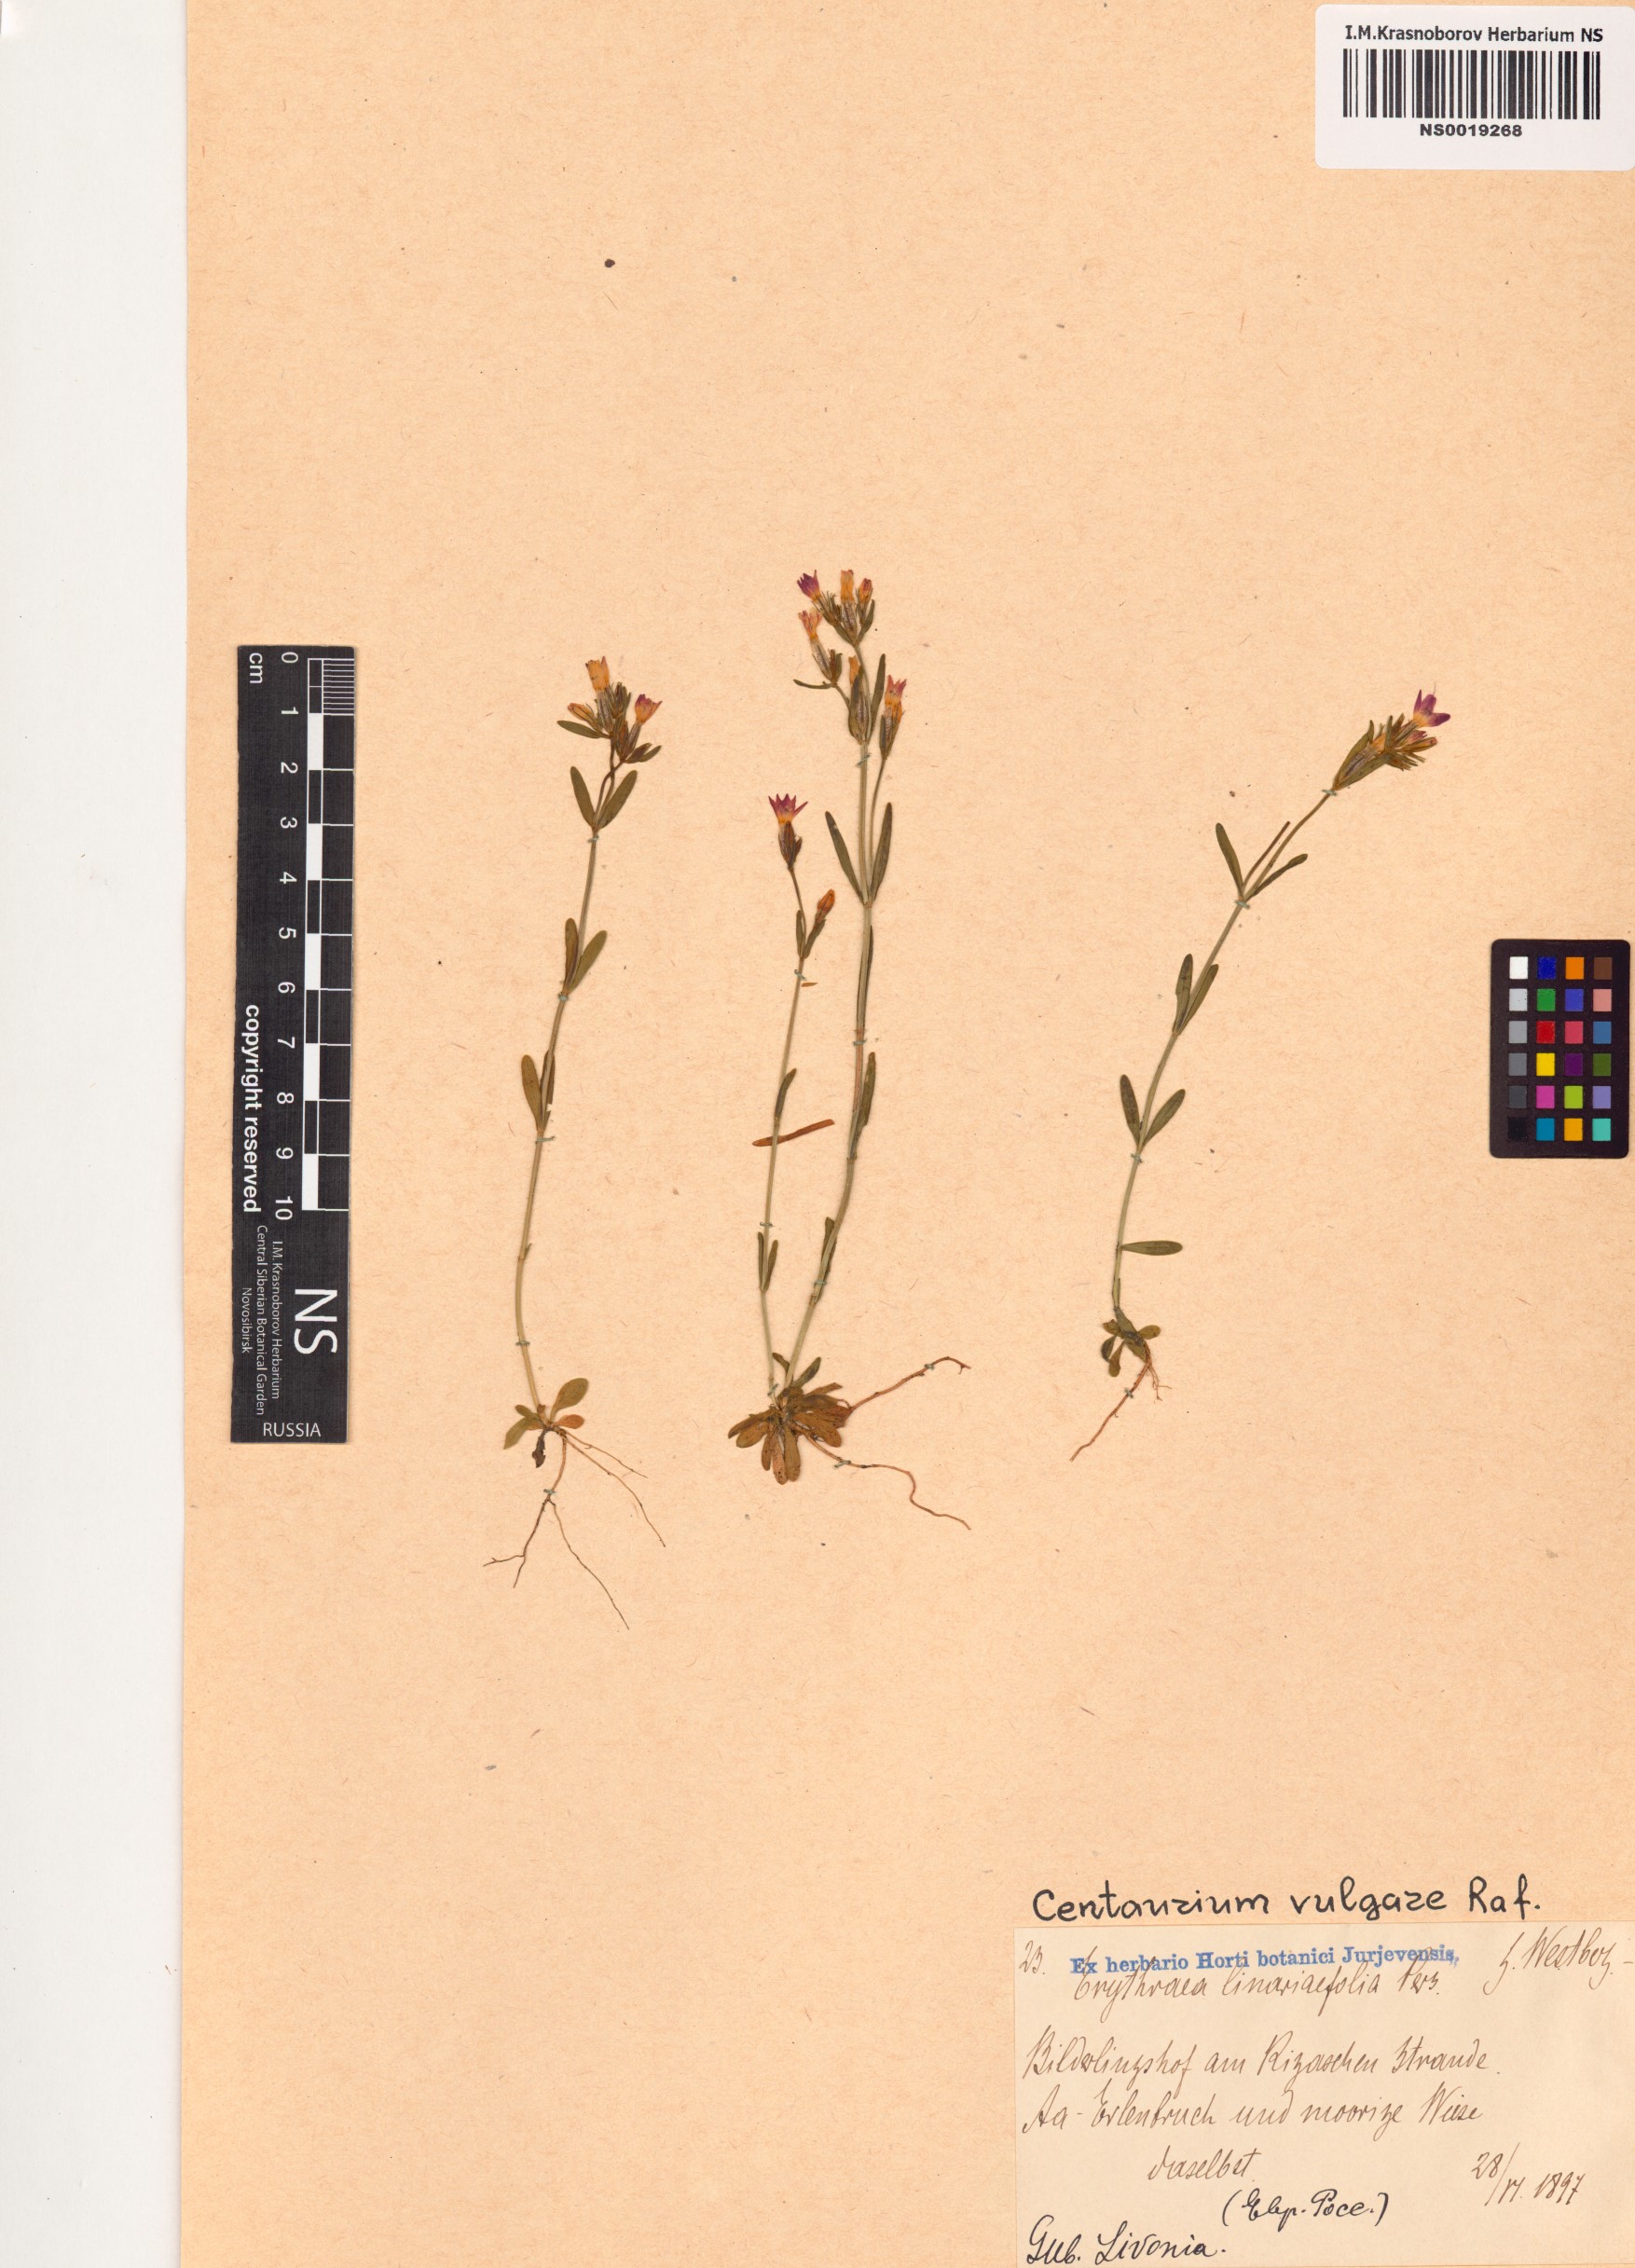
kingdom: Plantae
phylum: Tracheophyta
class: Magnoliopsida
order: Gentianales
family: Gentianaceae
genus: Centaurium
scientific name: Centaurium erythraea
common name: Common centaury
